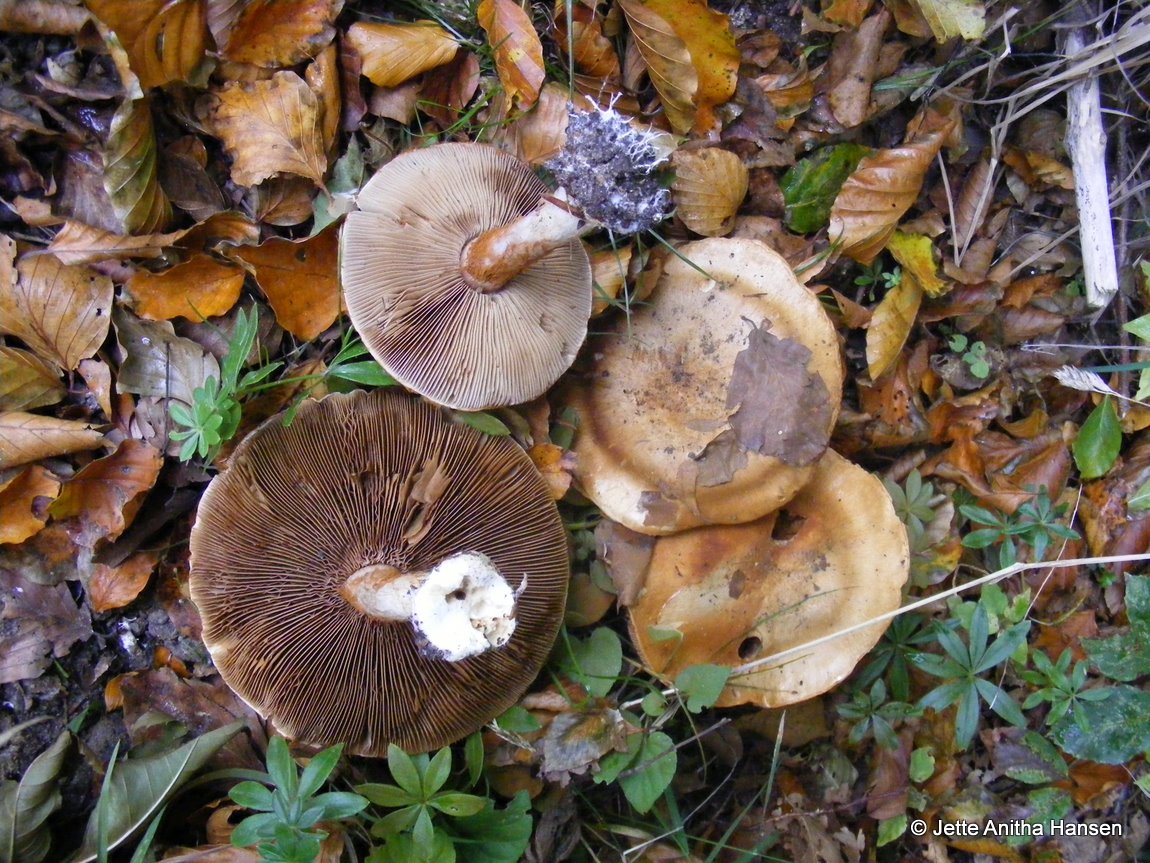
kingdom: Fungi
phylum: Basidiomycota
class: Agaricomycetes
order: Agaricales
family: Cortinariaceae
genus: Cortinarius
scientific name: Cortinarius anserinus
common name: bøge-slørhat
